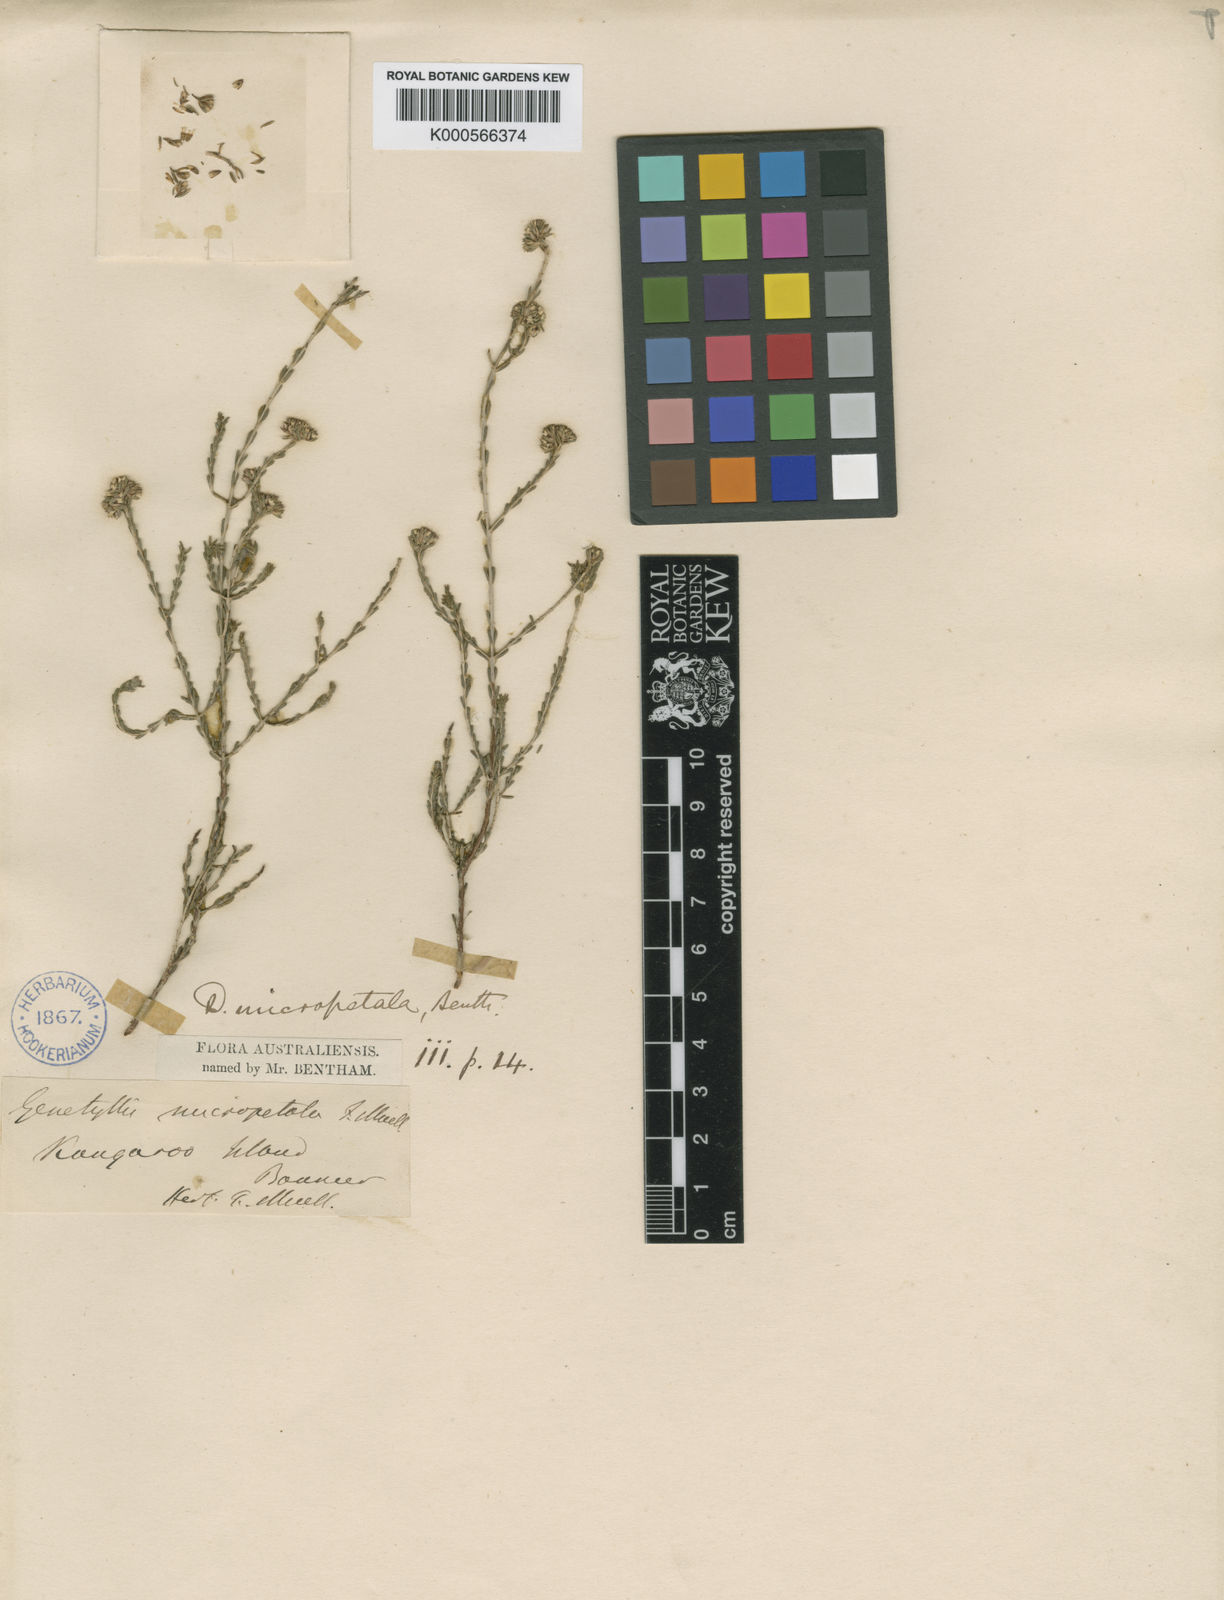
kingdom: Plantae
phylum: Tracheophyta
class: Magnoliopsida
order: Myrtales
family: Myrtaceae
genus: Darwinia
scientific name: Darwinia micropetala
